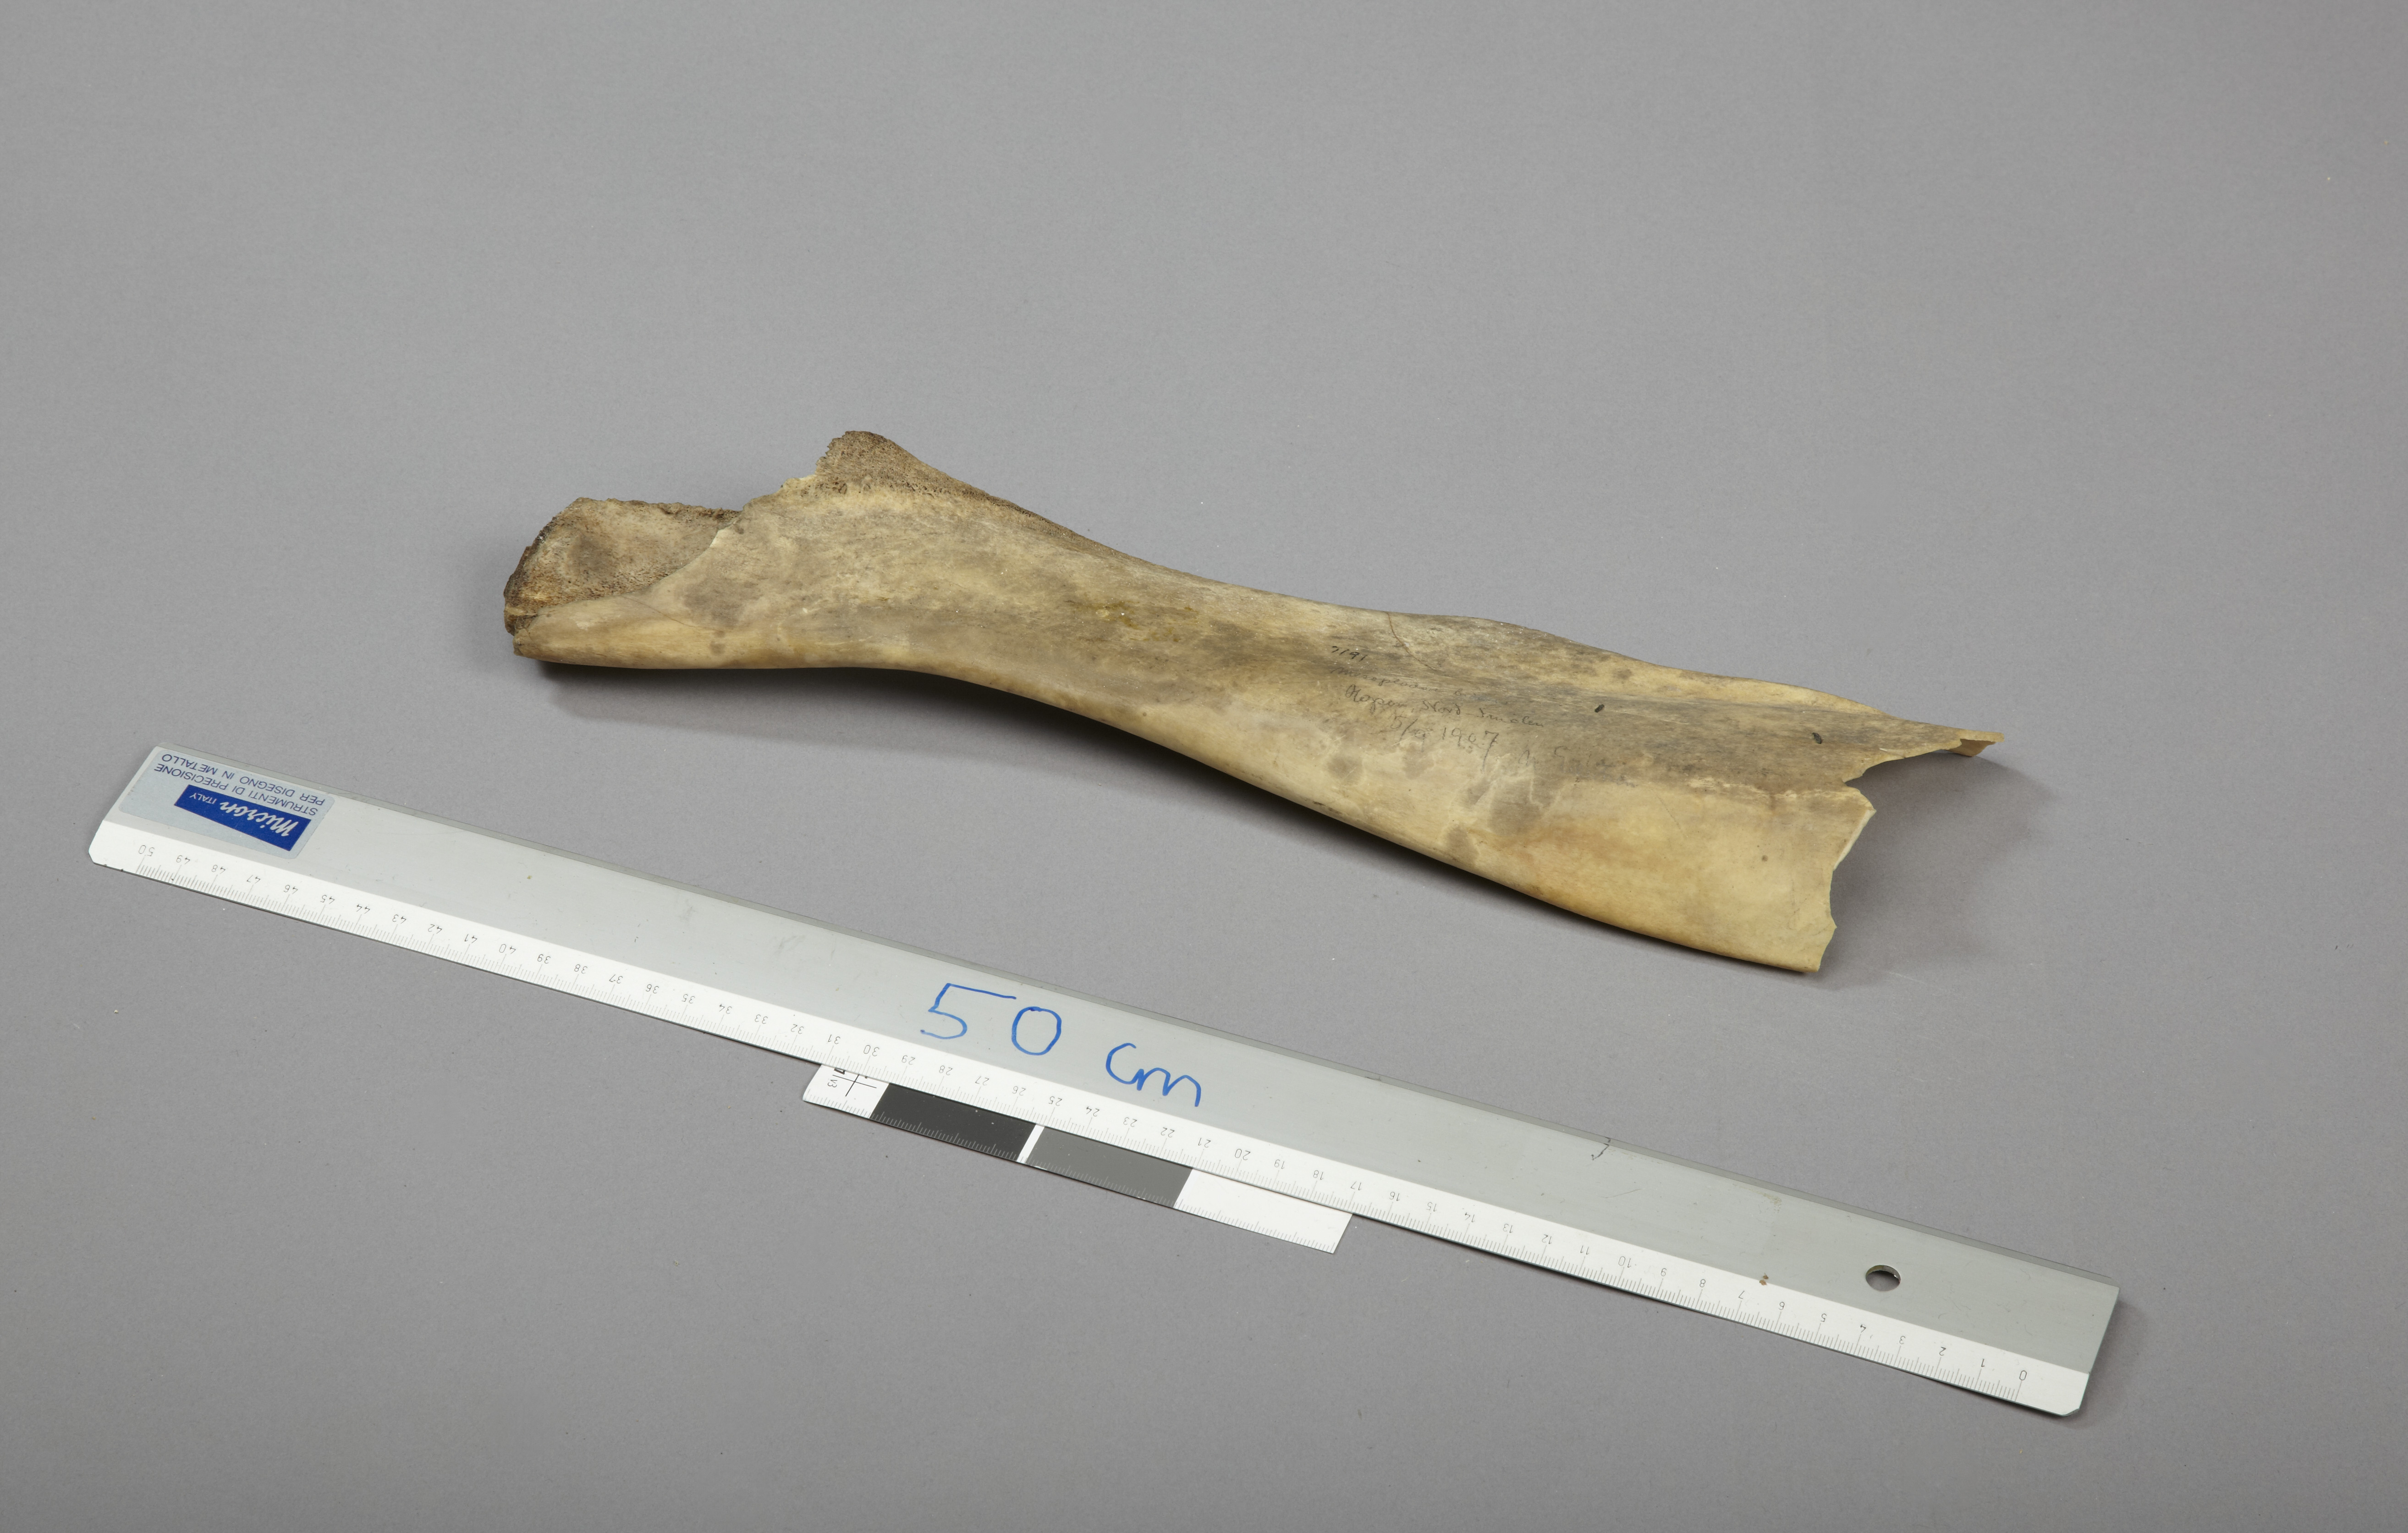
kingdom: Animalia
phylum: Chordata
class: Mammalia
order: Cetacea
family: Hyperoodontidae
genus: Mesoplodon
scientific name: Mesoplodon bidens
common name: Sowerby's beaked whale
